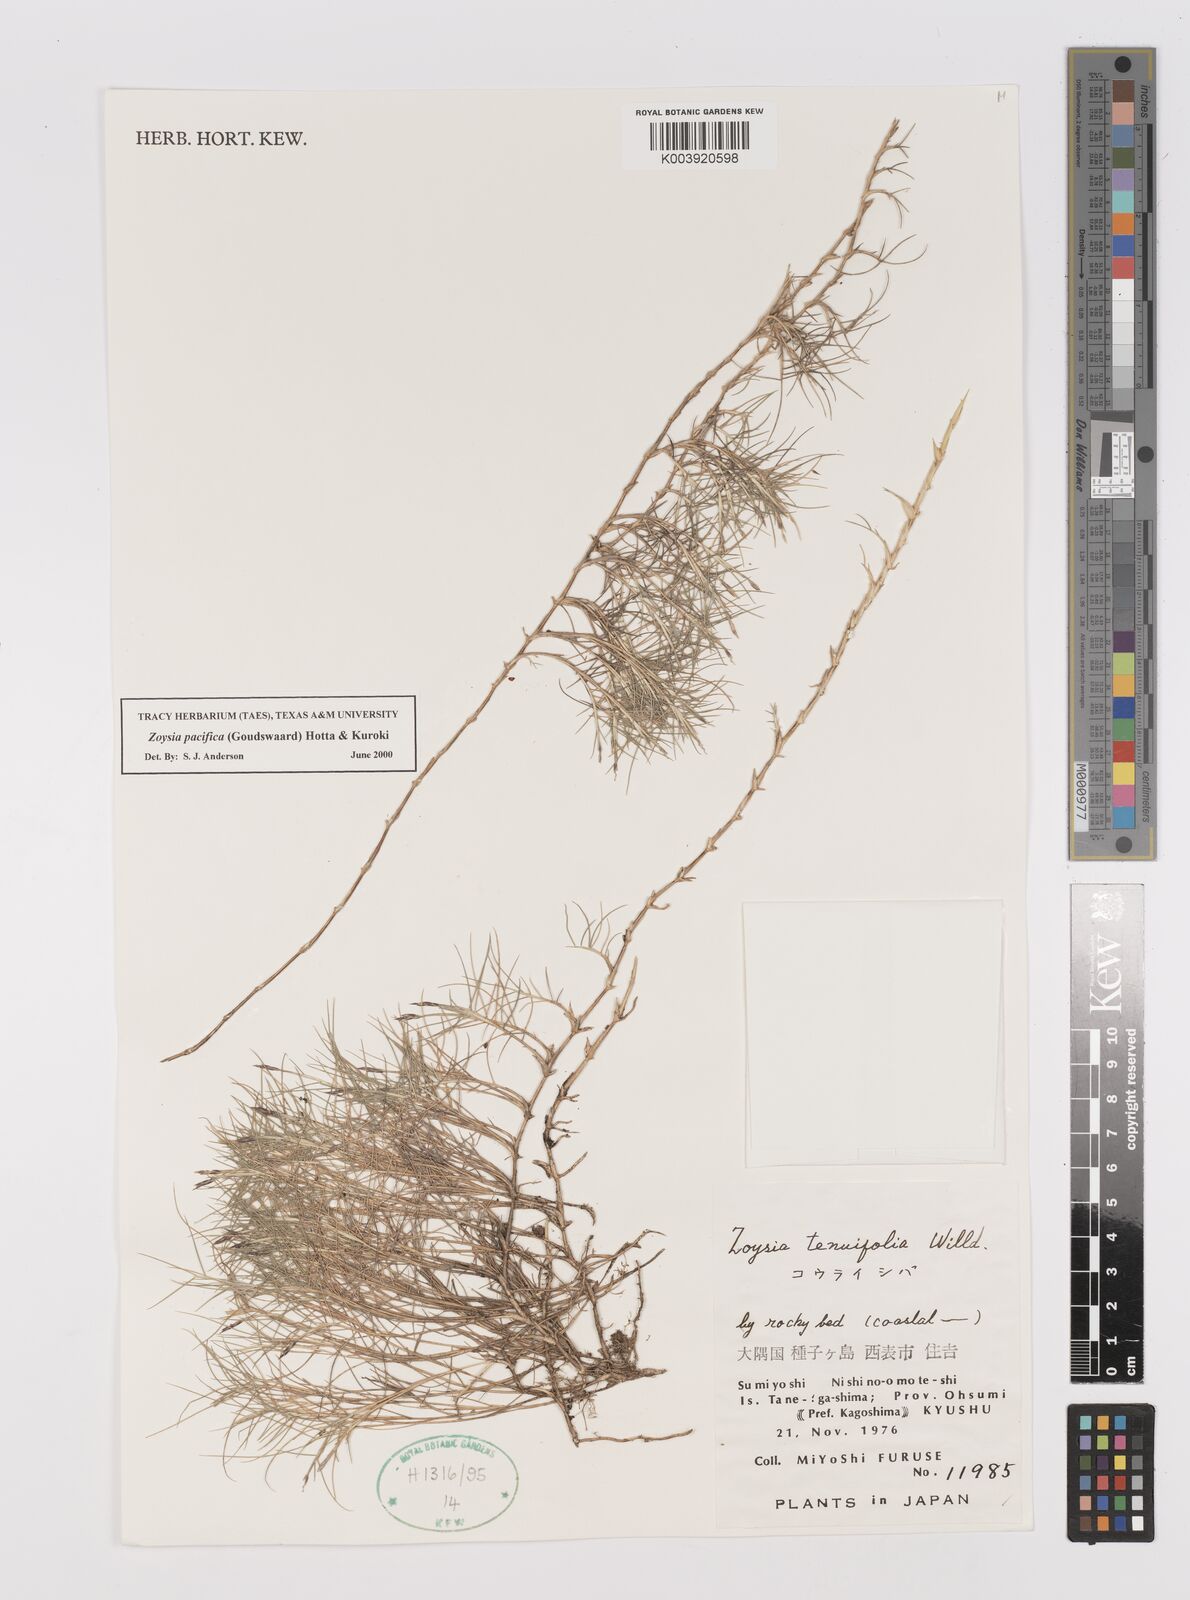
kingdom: Plantae
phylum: Tracheophyta
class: Liliopsida
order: Poales
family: Poaceae
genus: Zoysia
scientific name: Zoysia matrella
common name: Manila grass
